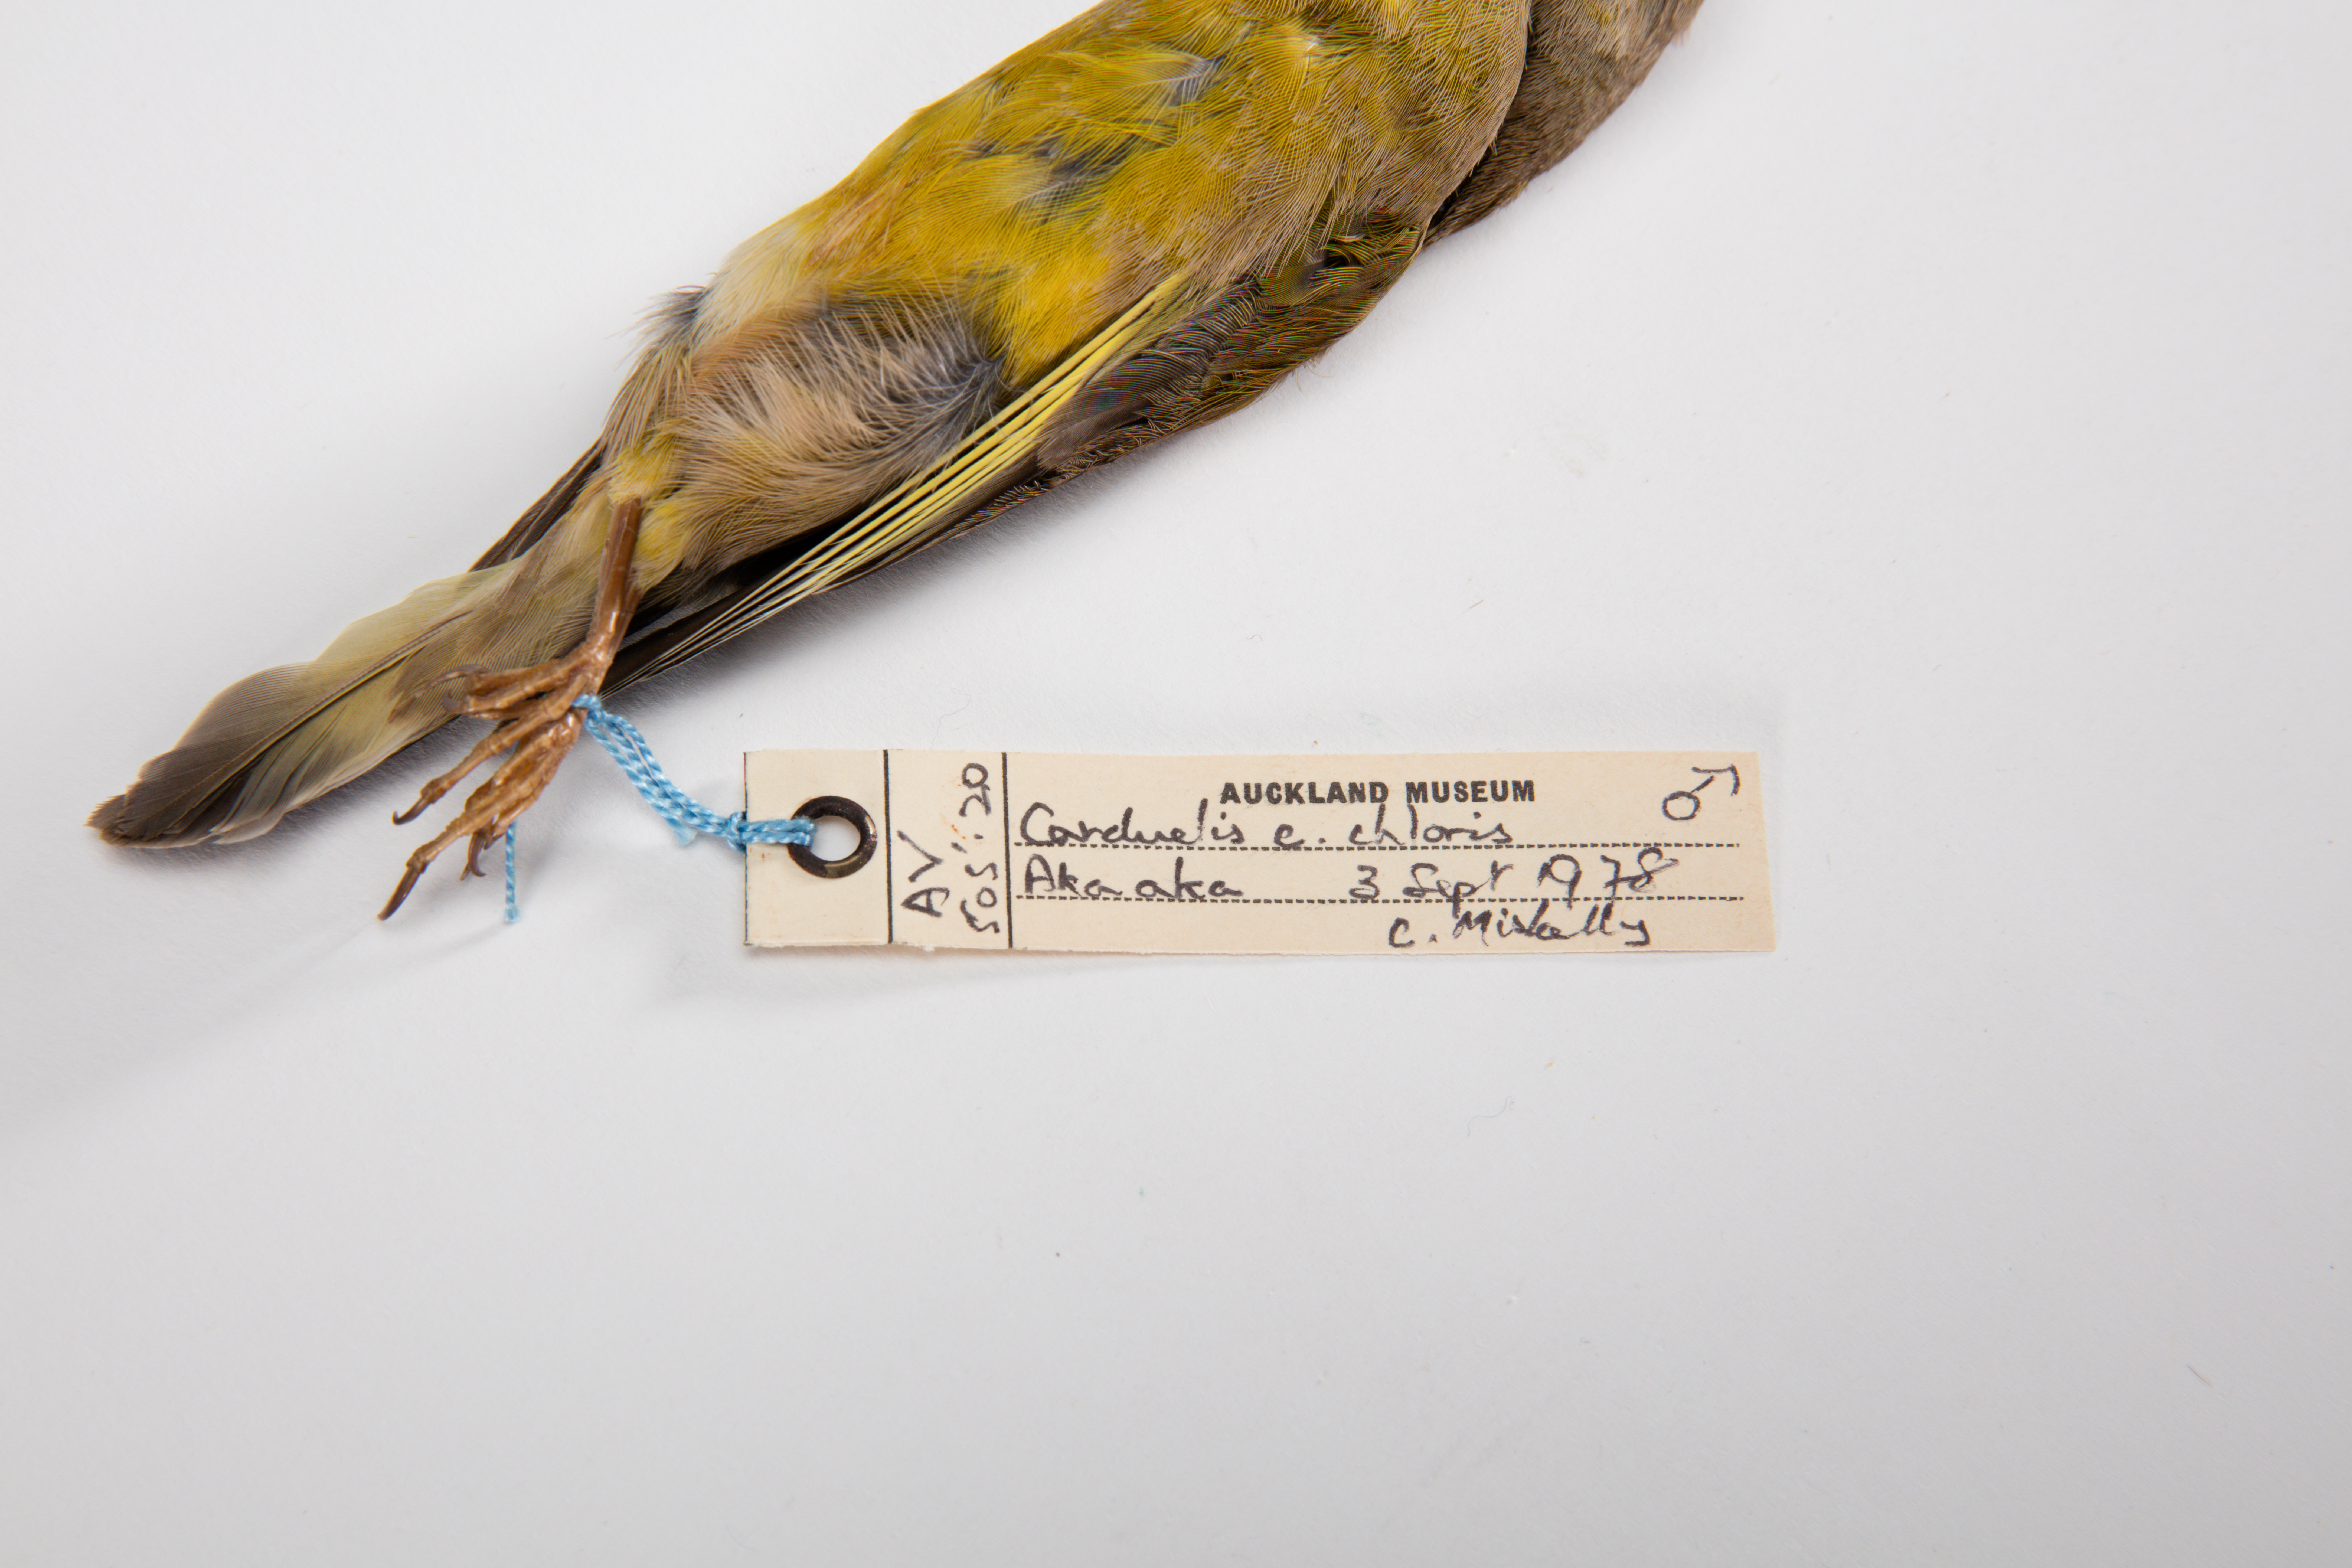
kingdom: Plantae
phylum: Tracheophyta
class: Liliopsida
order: Poales
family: Poaceae
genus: Chloris
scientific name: Chloris chloris
